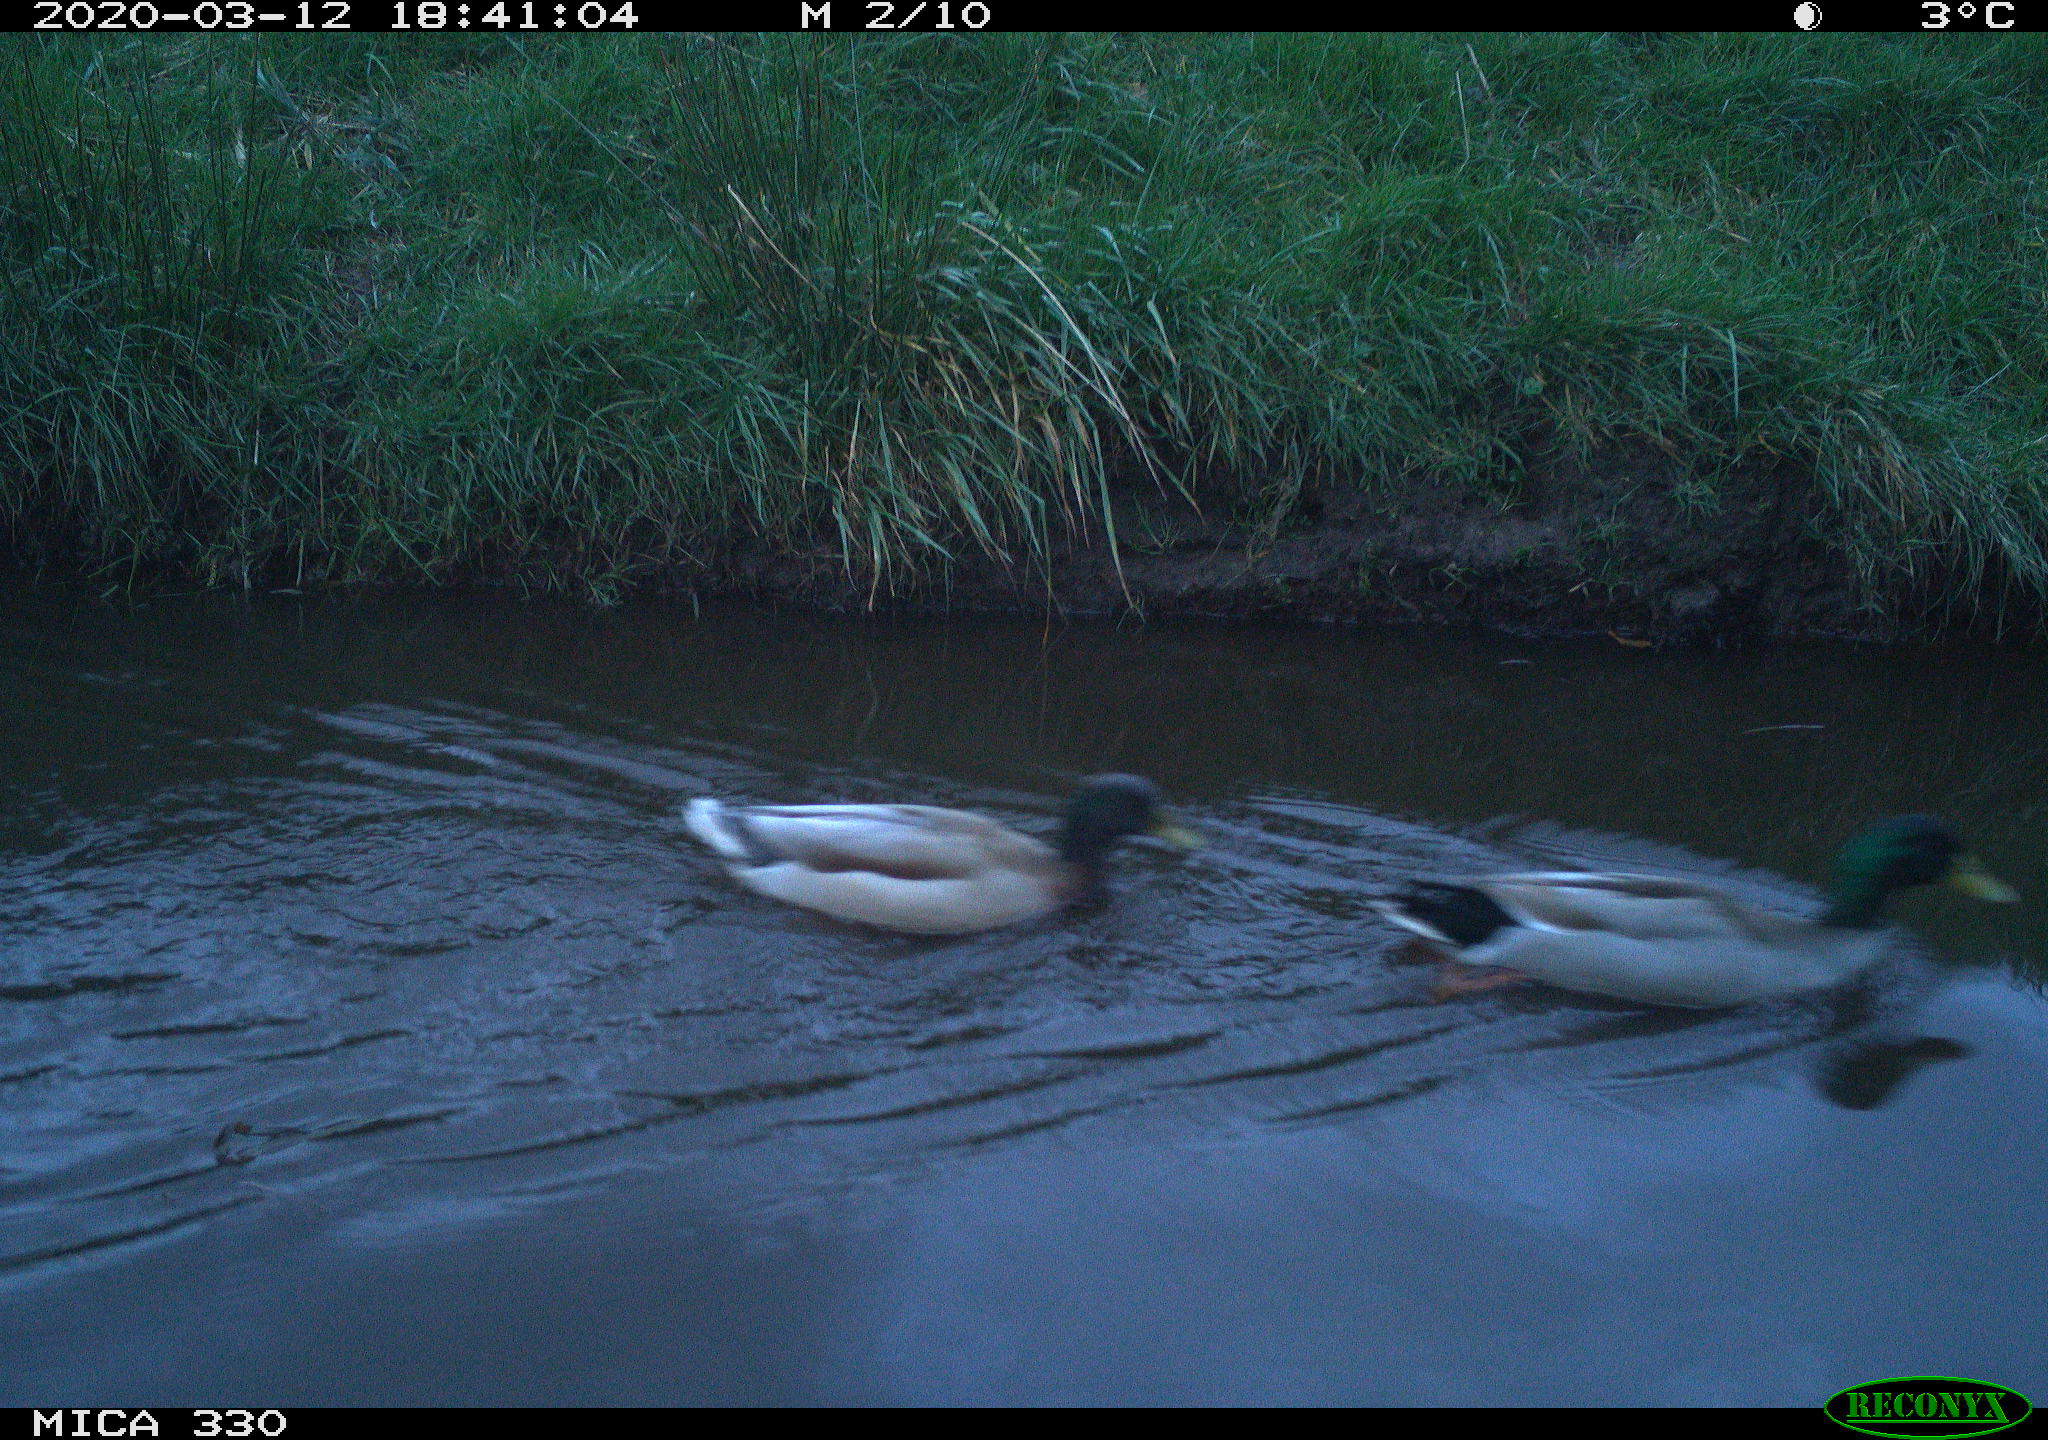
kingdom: Animalia
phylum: Chordata
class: Aves
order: Anseriformes
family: Anatidae
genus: Anas
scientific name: Anas platyrhynchos
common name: Mallard
